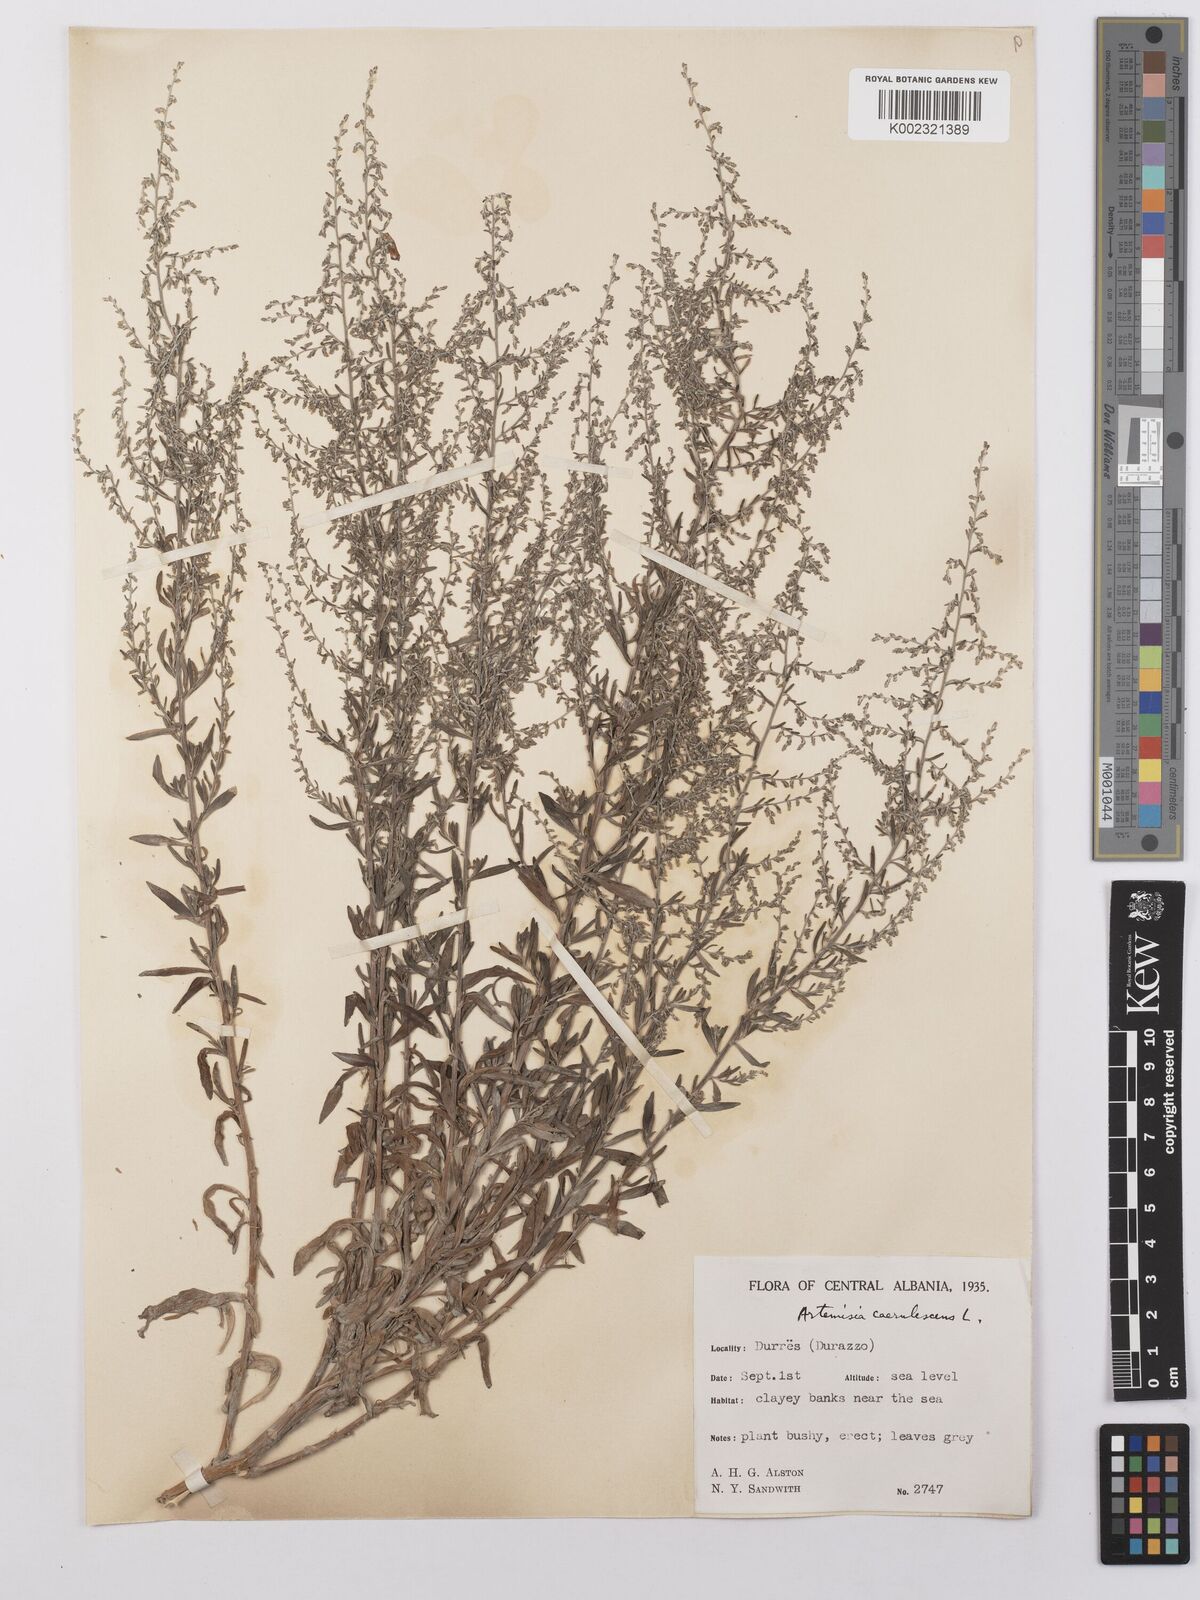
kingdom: Plantae
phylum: Tracheophyta
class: Magnoliopsida
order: Asterales
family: Asteraceae
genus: Artemisia
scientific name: Artemisia caerulescens
